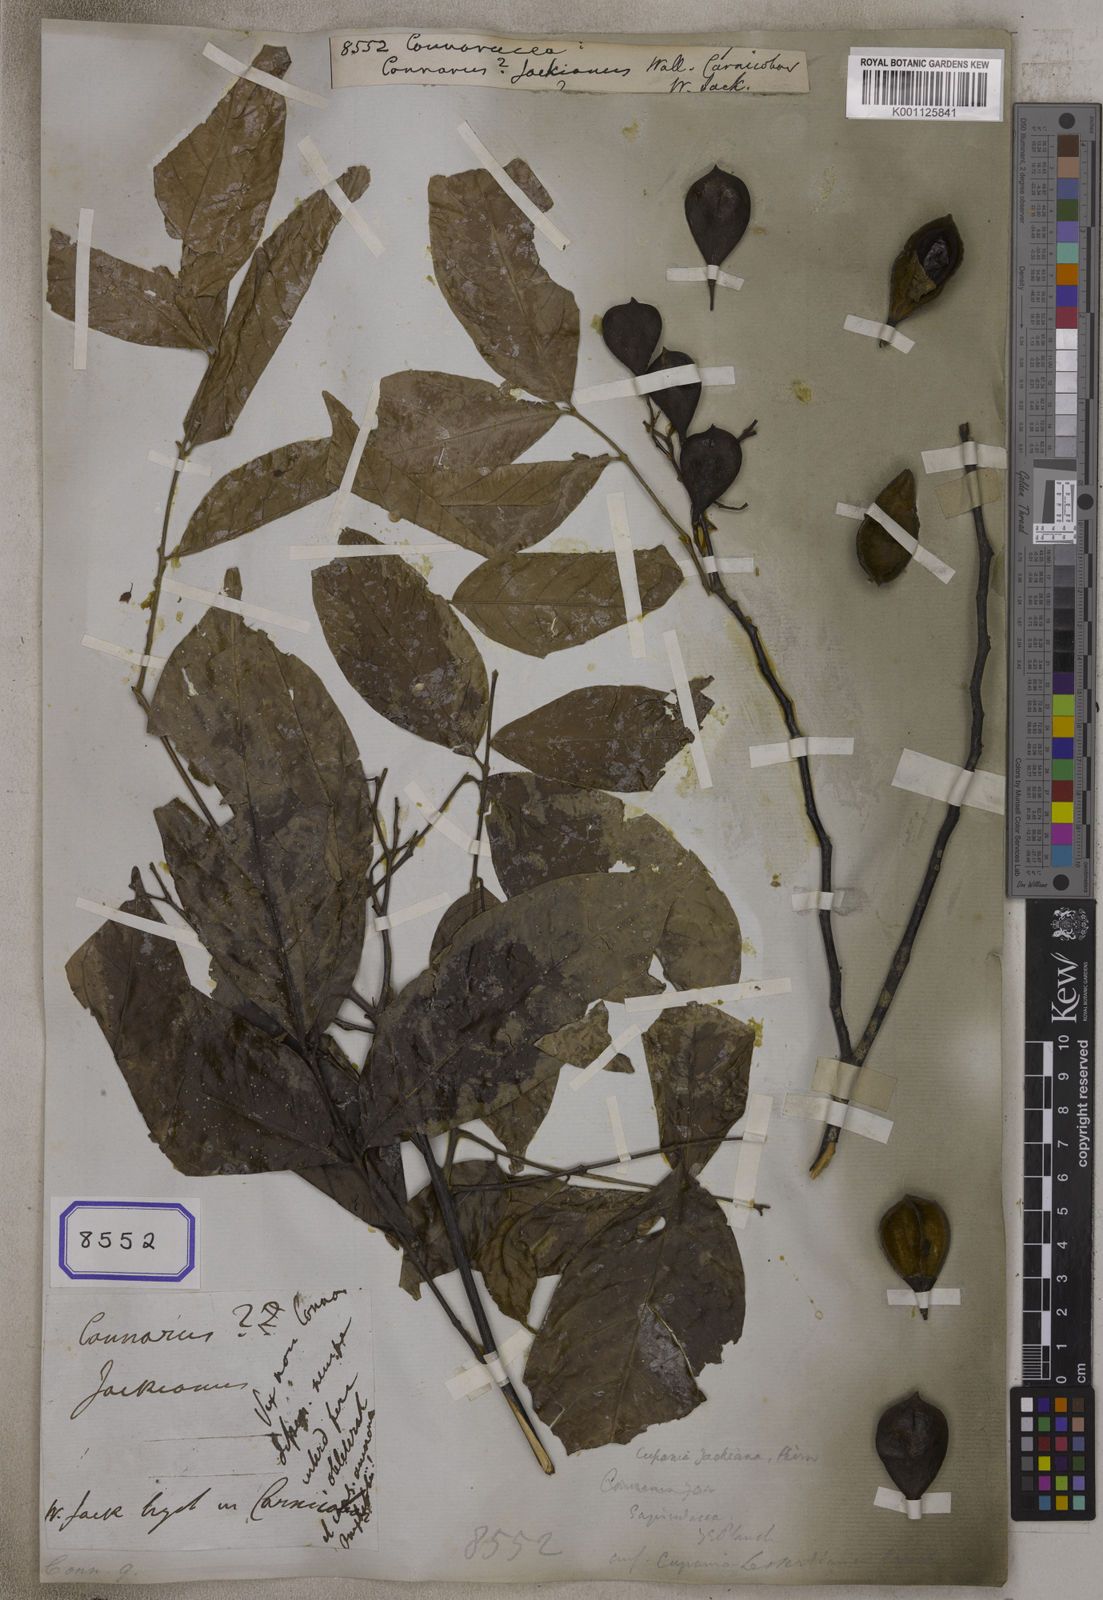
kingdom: Plantae
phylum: Tracheophyta
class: Magnoliopsida
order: Oxalidales
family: Connaraceae
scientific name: Connaraceae
